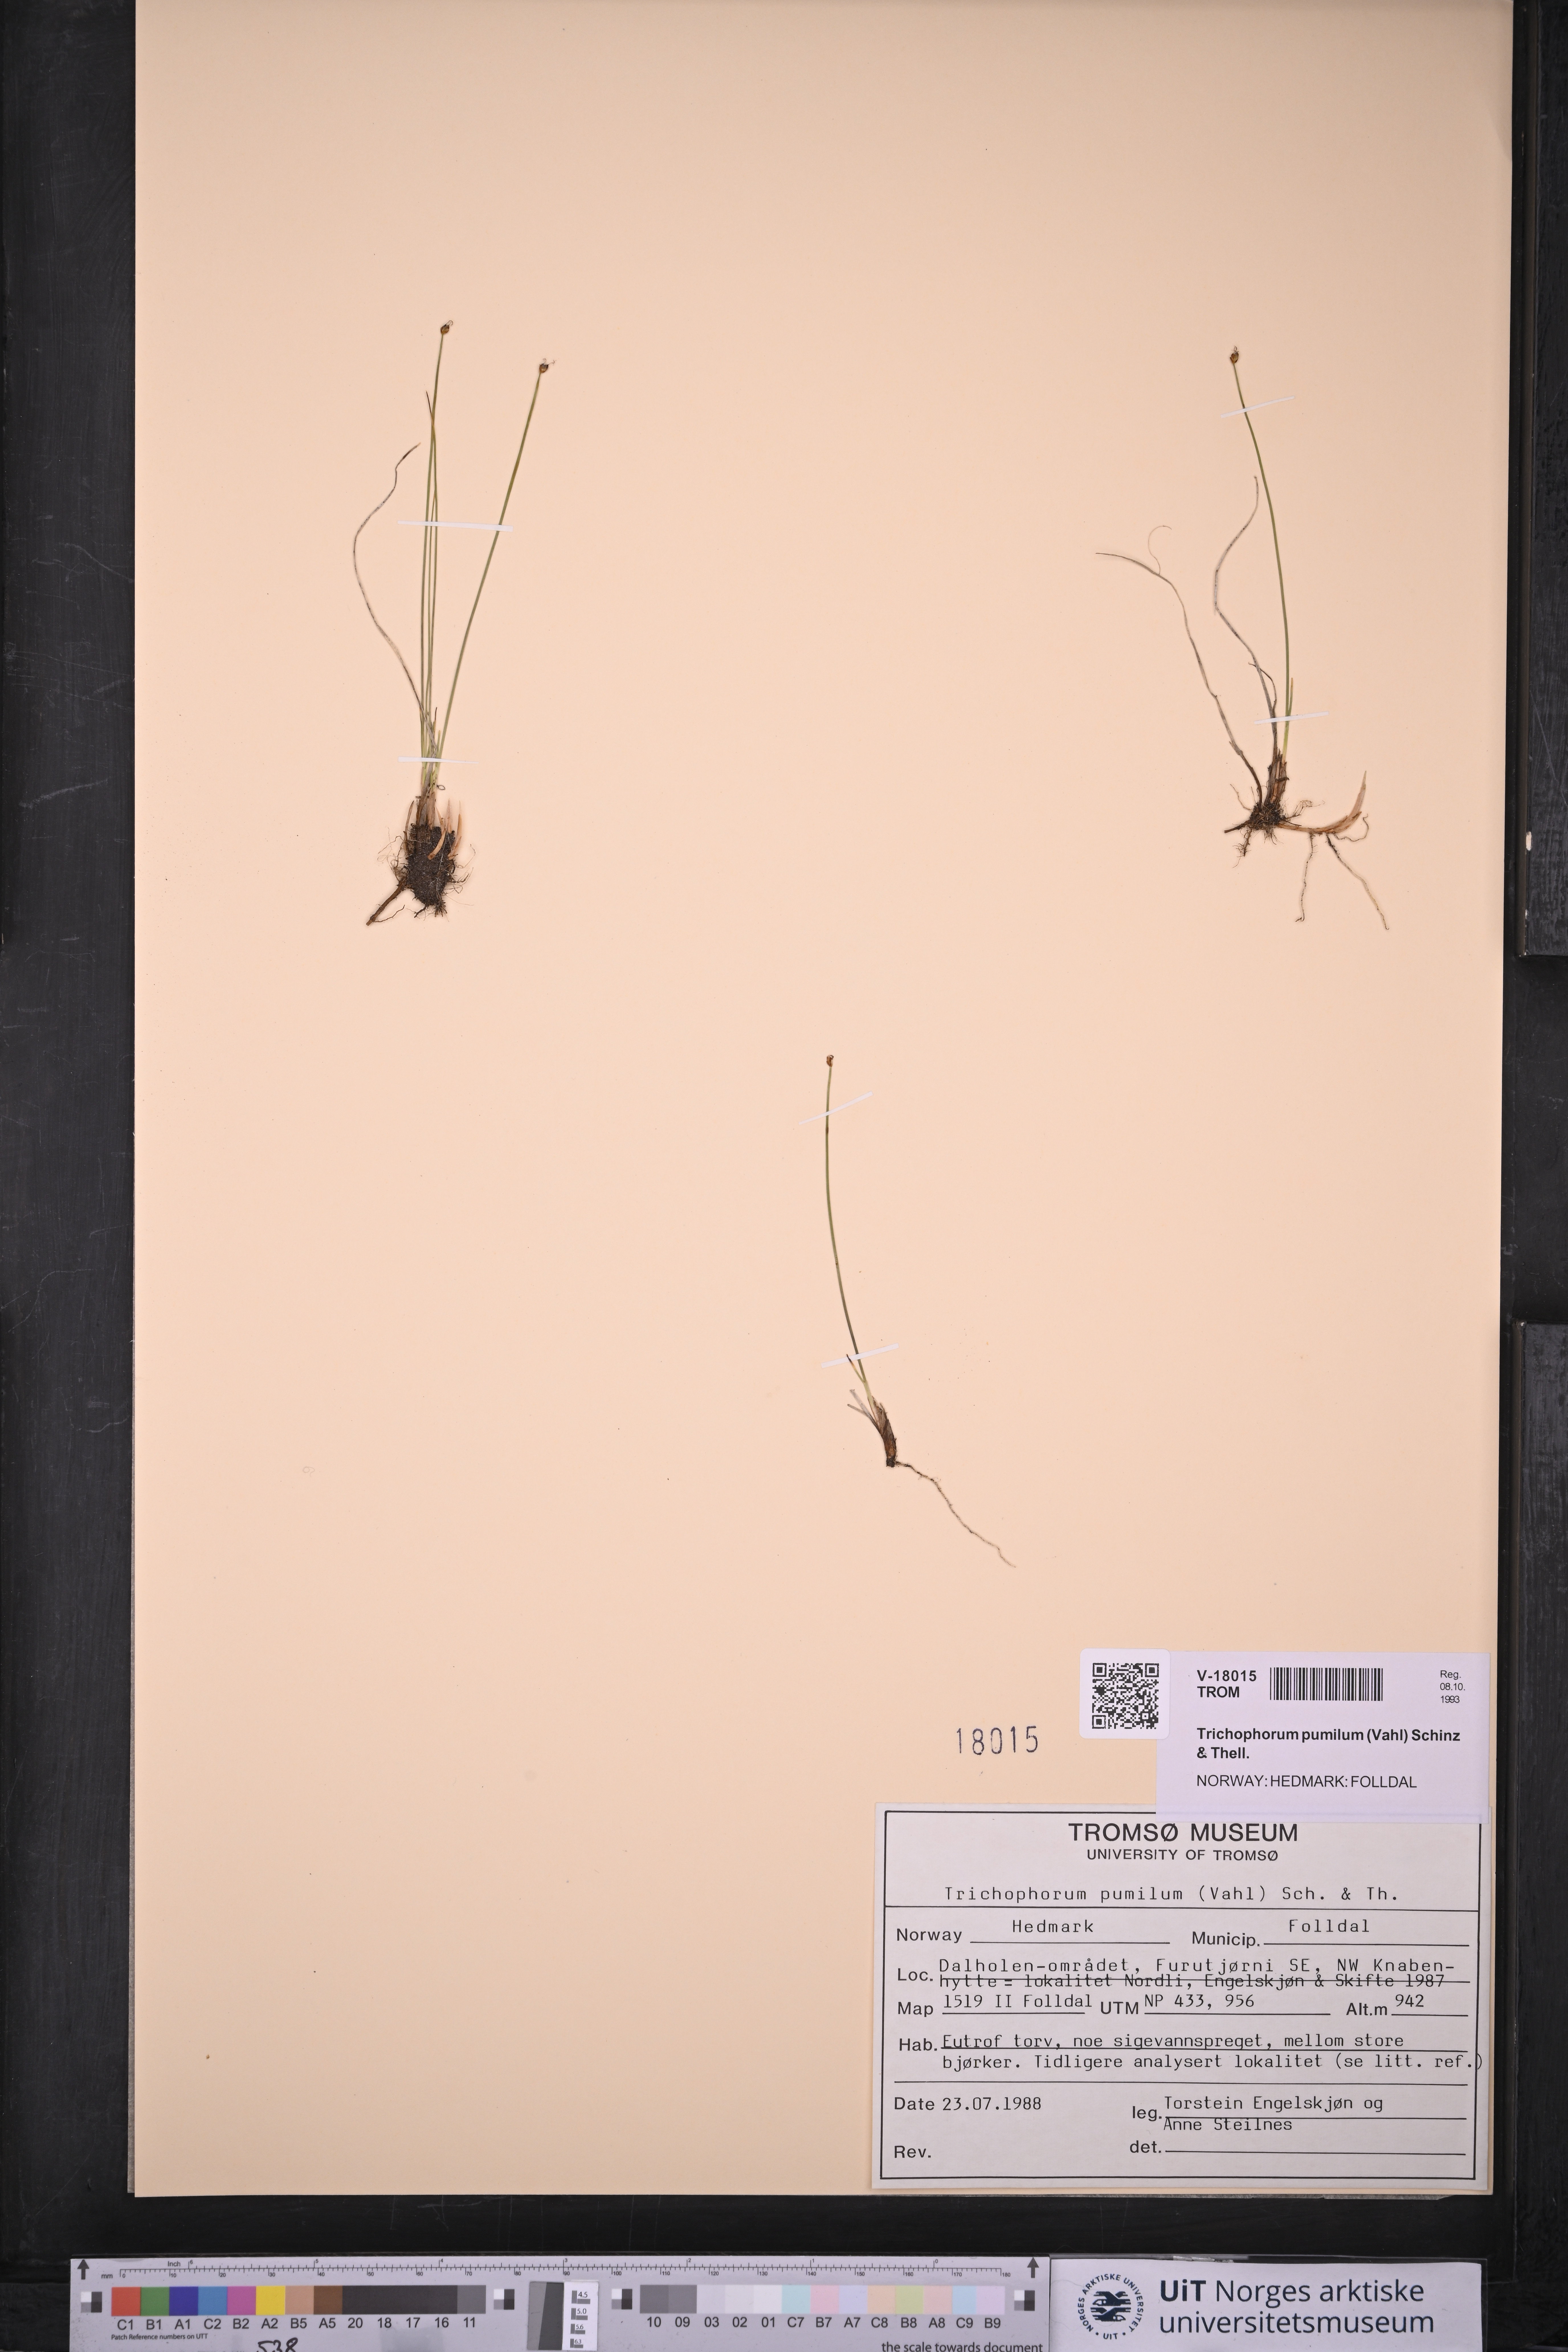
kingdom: Plantae
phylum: Tracheophyta
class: Liliopsida
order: Poales
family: Cyperaceae
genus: Trichophorum
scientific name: Trichophorum pumilum
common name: Rolland's bulrush
